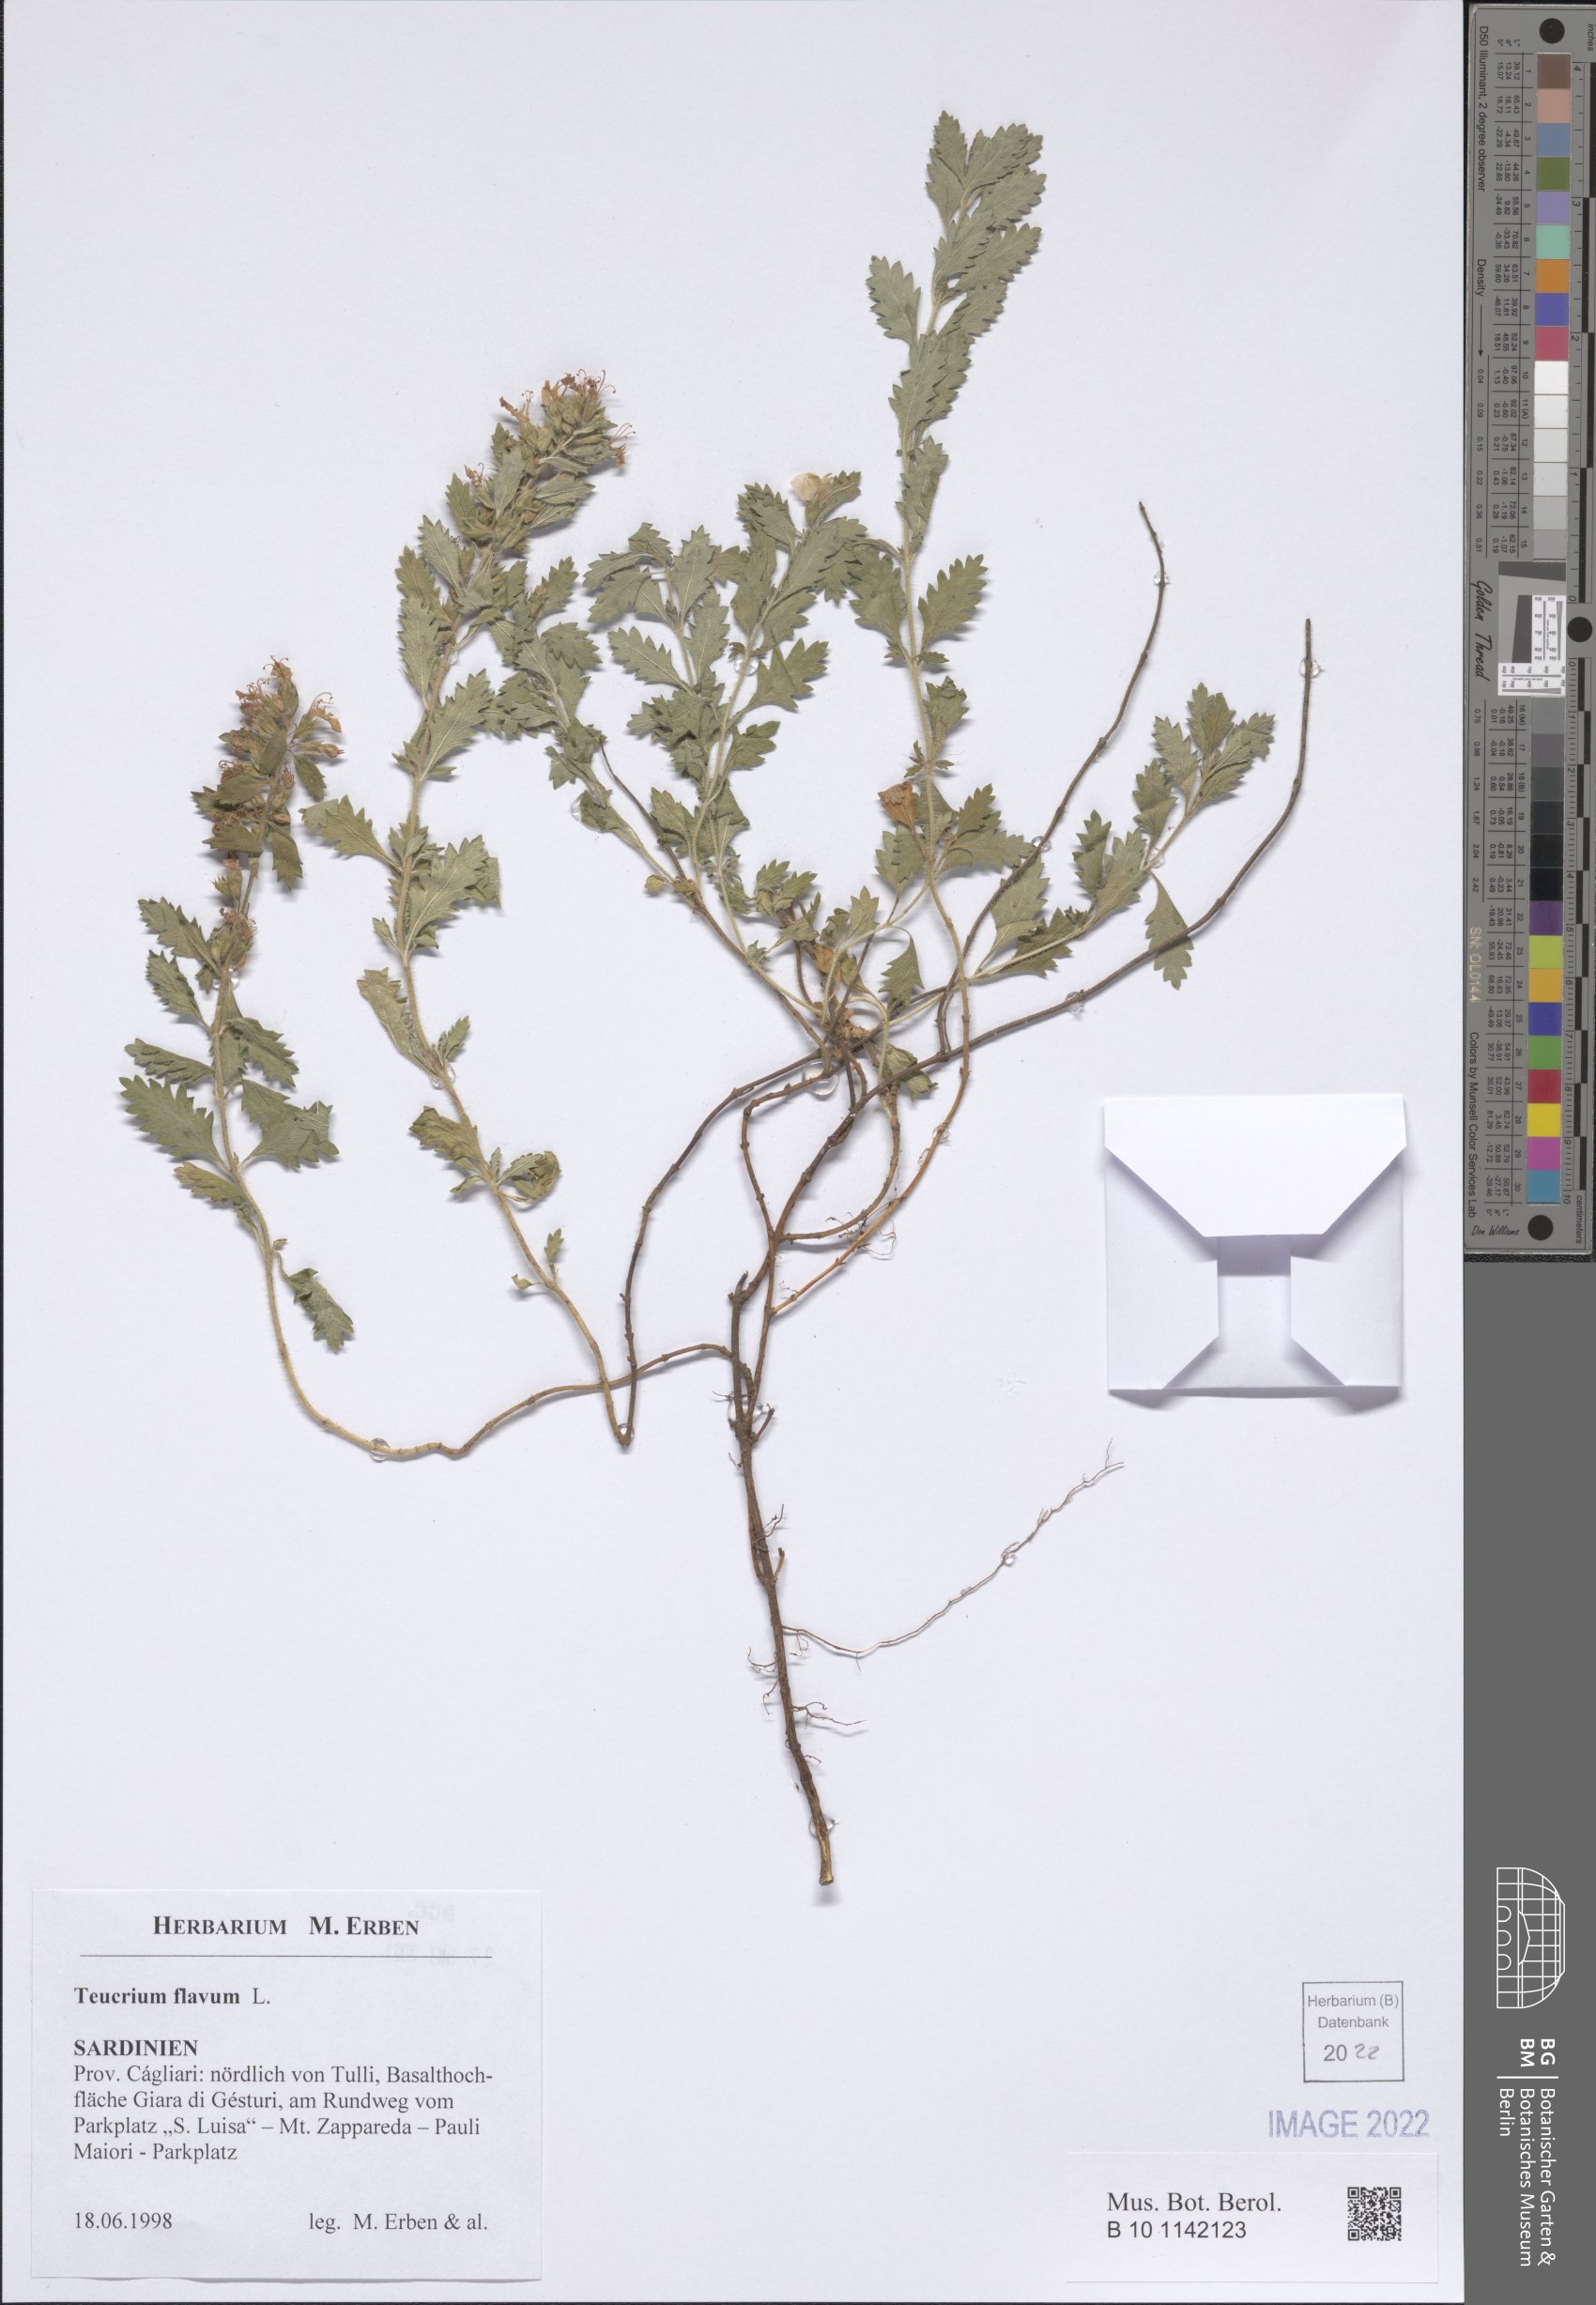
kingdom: Plantae
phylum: Tracheophyta
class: Magnoliopsida
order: Lamiales
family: Lamiaceae
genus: Teucrium
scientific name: Teucrium flavum
